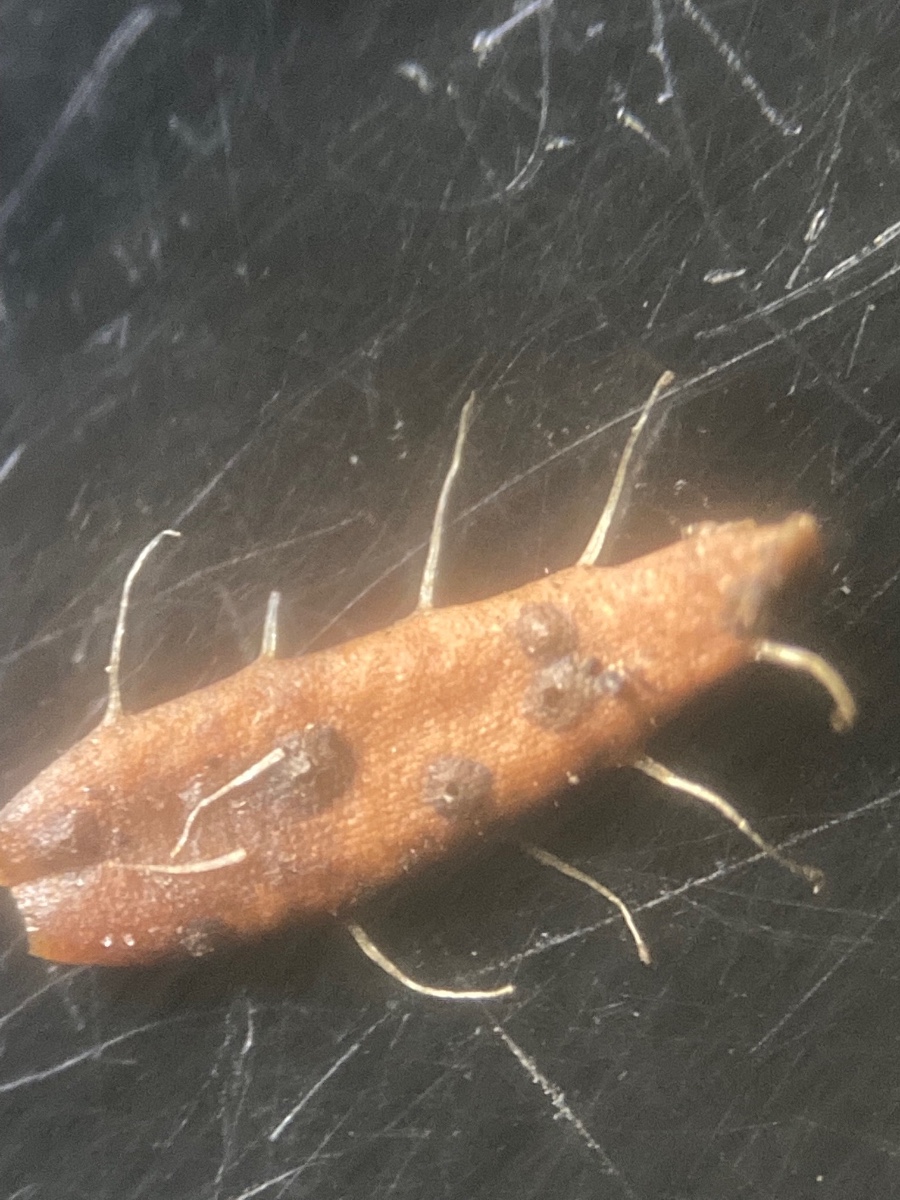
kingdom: Fungi
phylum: Ascomycota
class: Sordariomycetes
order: Amphisphaeriales
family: Pestalotiopsidaceae
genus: Pestalotiopsis
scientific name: Pestalotiopsis guepinii
